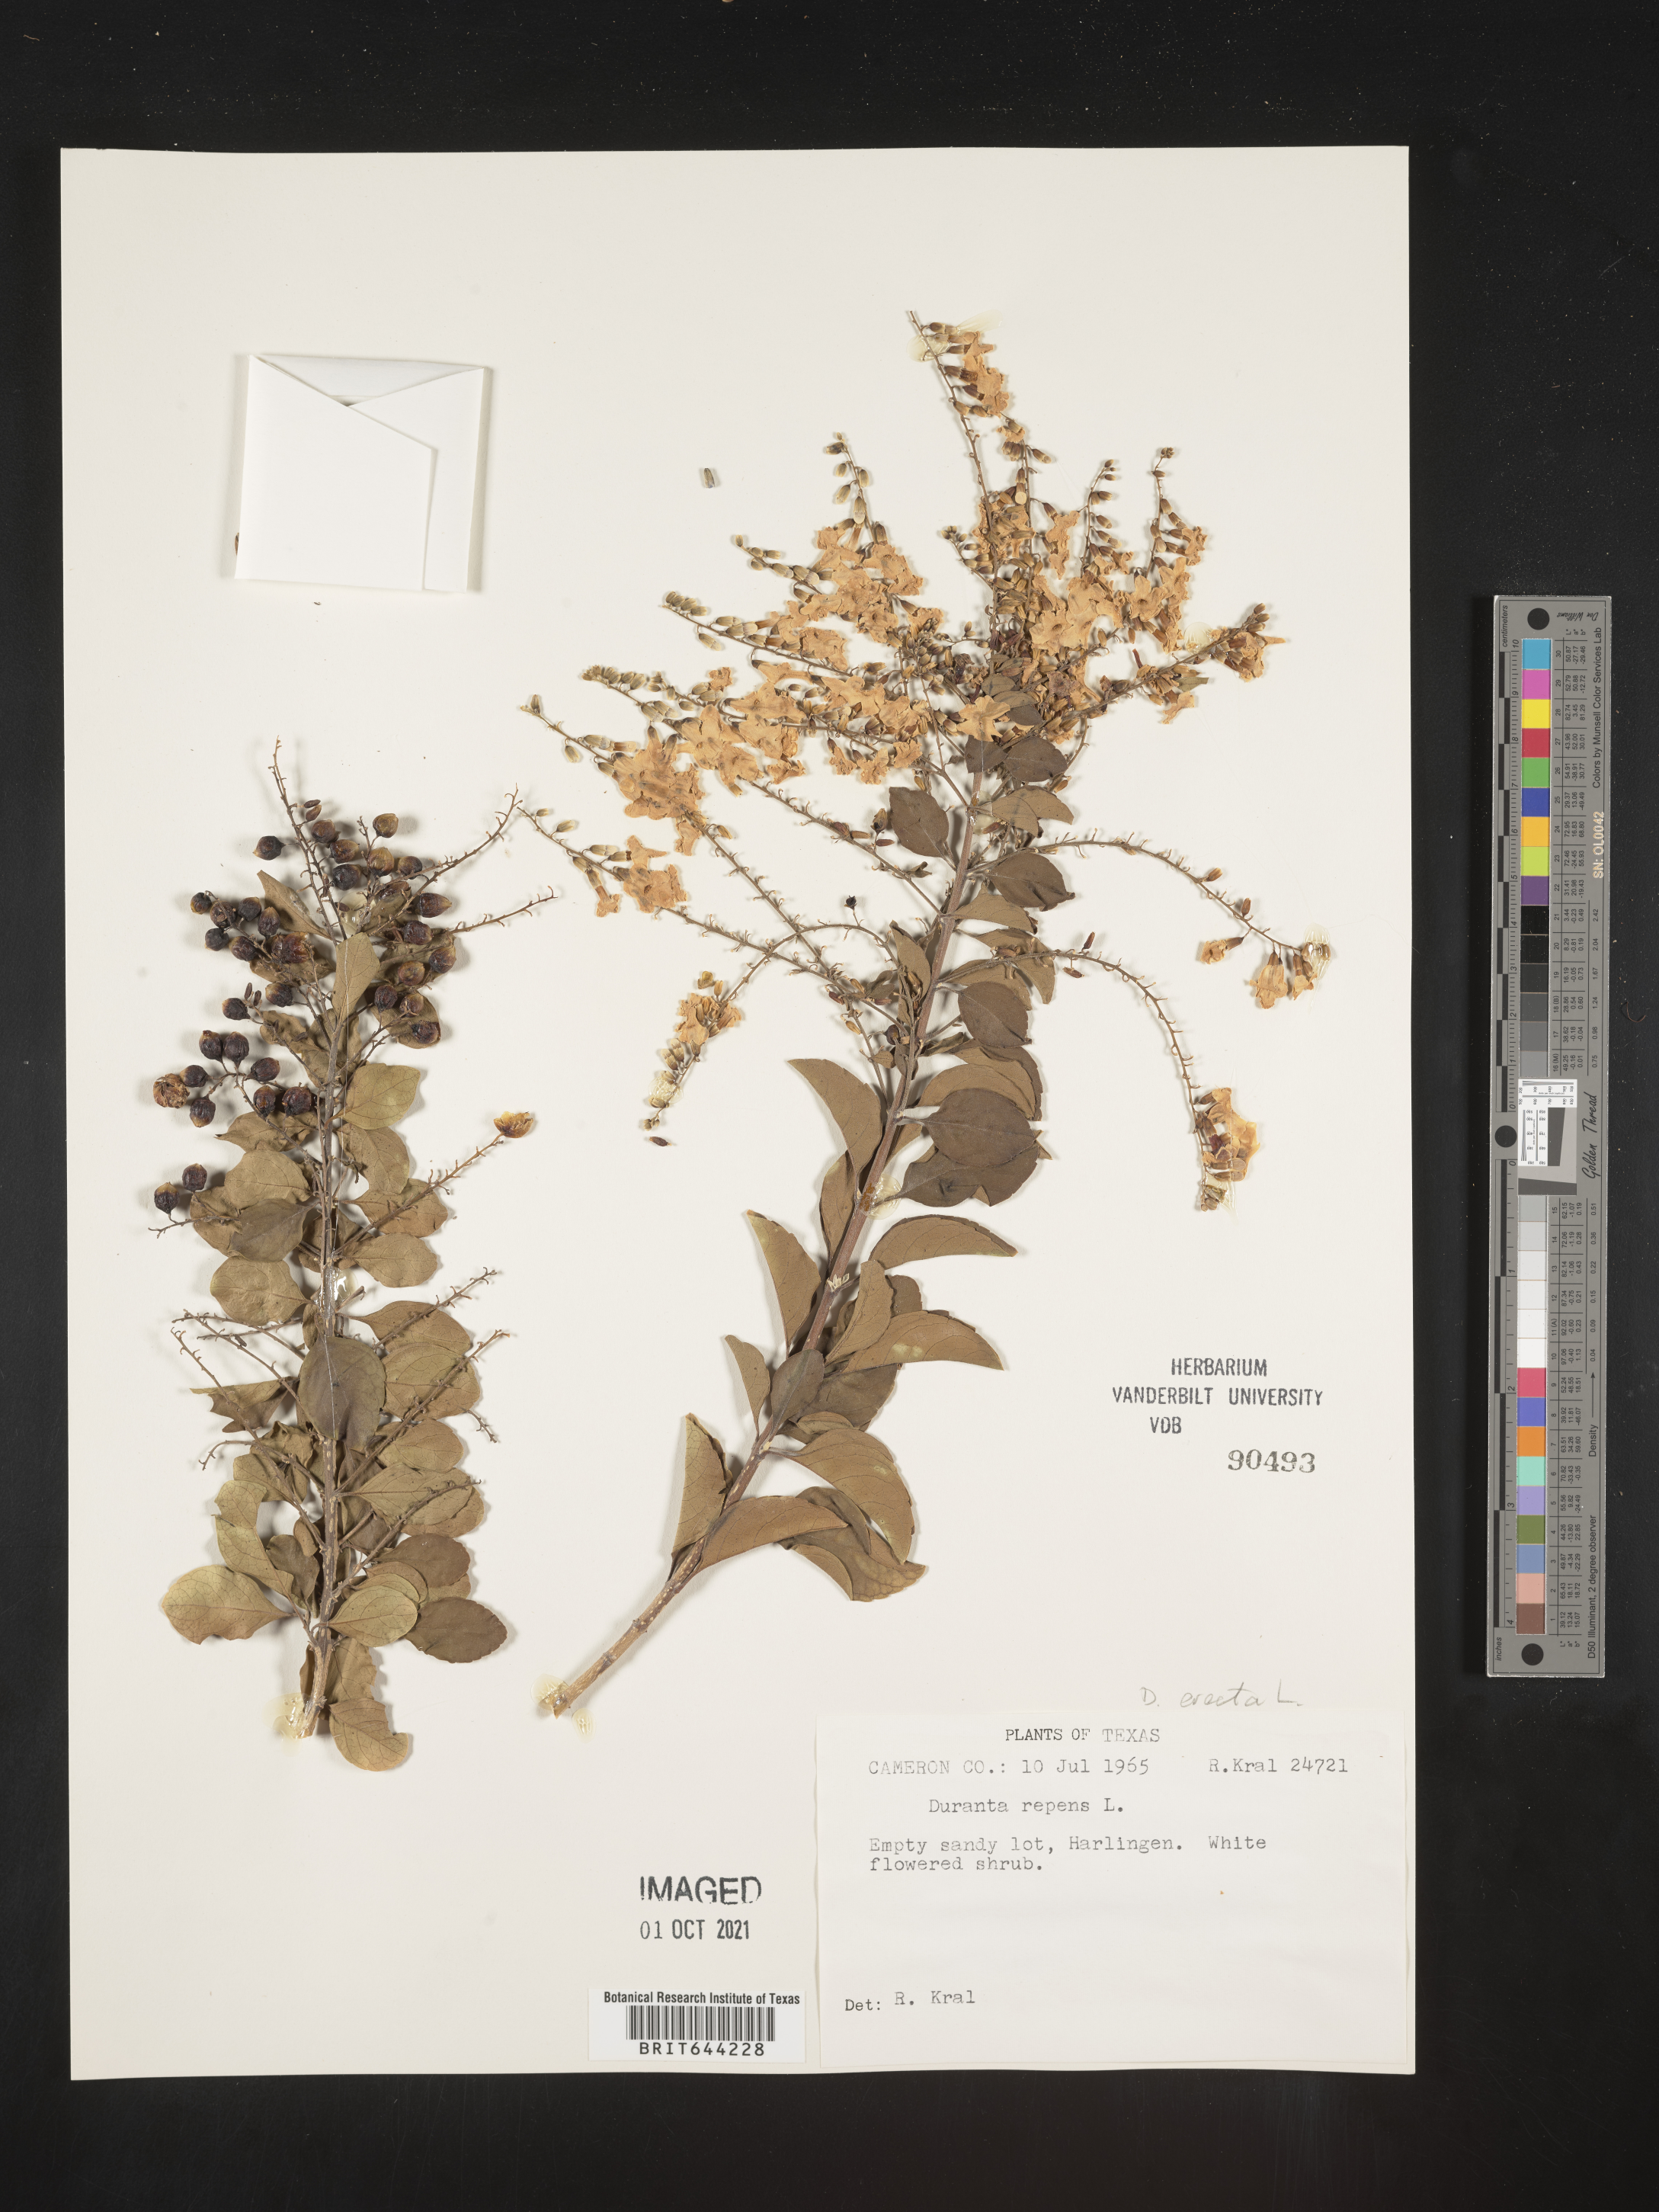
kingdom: Plantae
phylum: Tracheophyta
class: Magnoliopsida
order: Lamiales
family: Verbenaceae
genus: Duranta
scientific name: Duranta erecta
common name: Golden dewdrops
